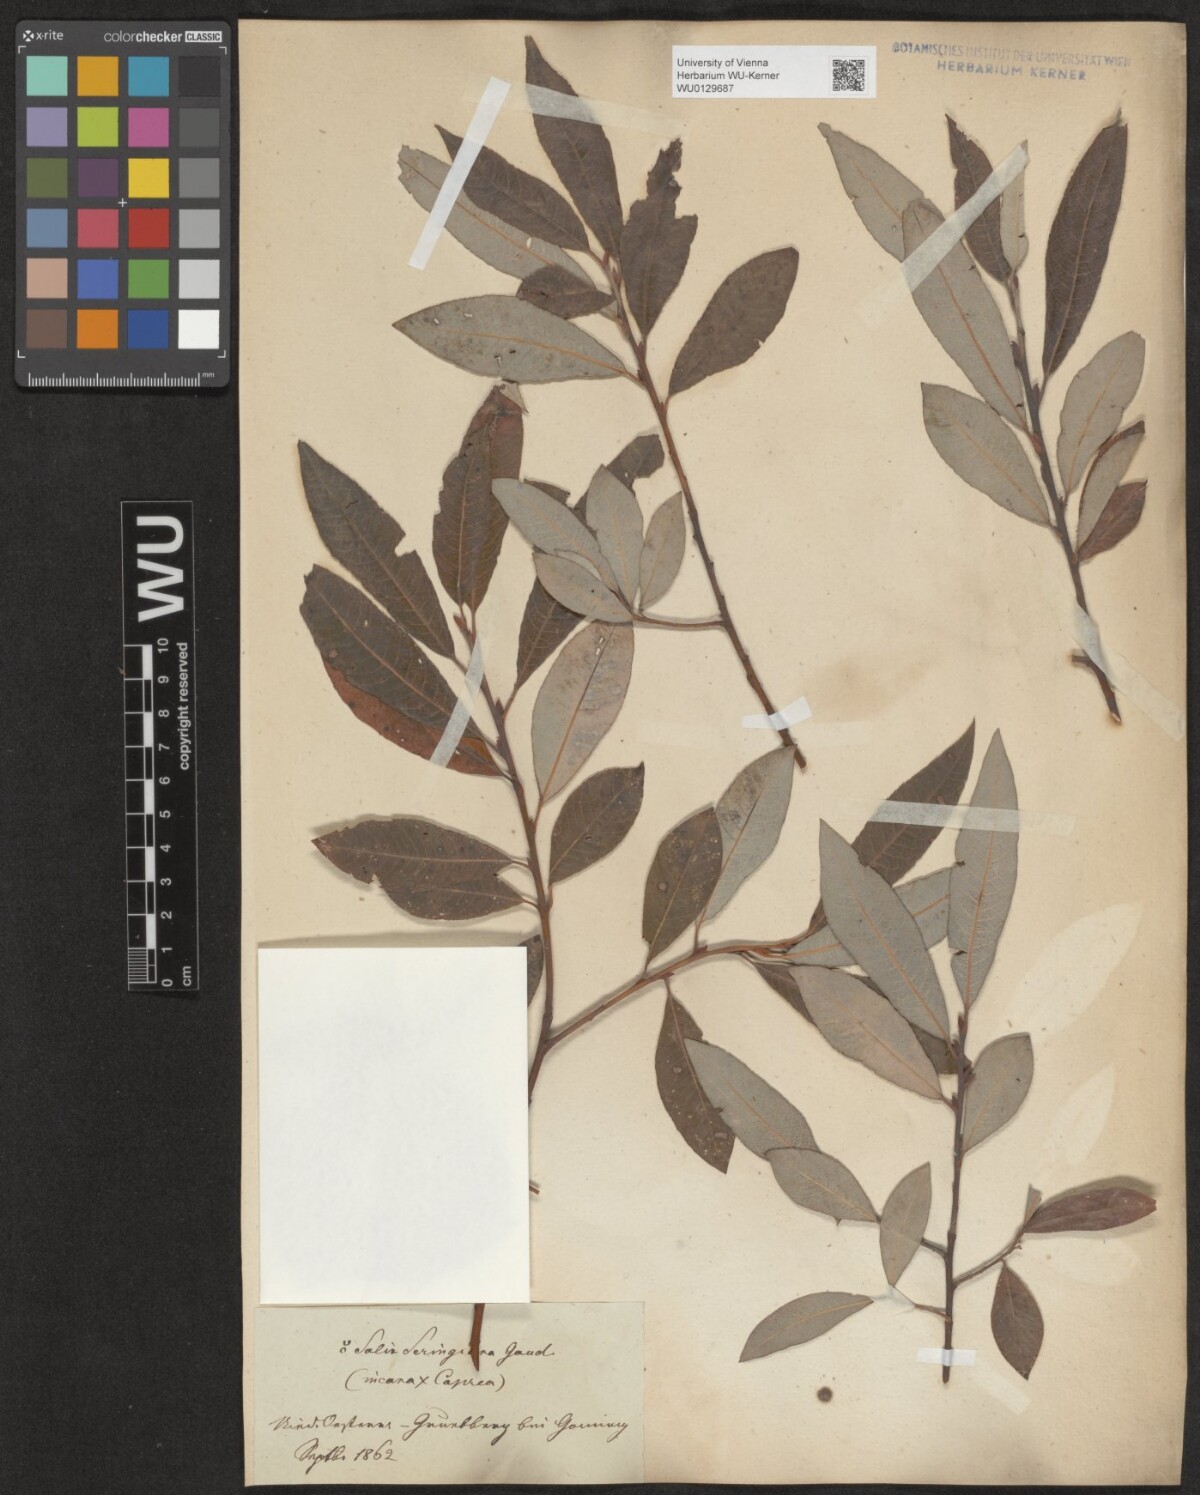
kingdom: Plantae
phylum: Tracheophyta
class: Magnoliopsida
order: Malpighiales
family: Salicaceae
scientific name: Salicaceae
